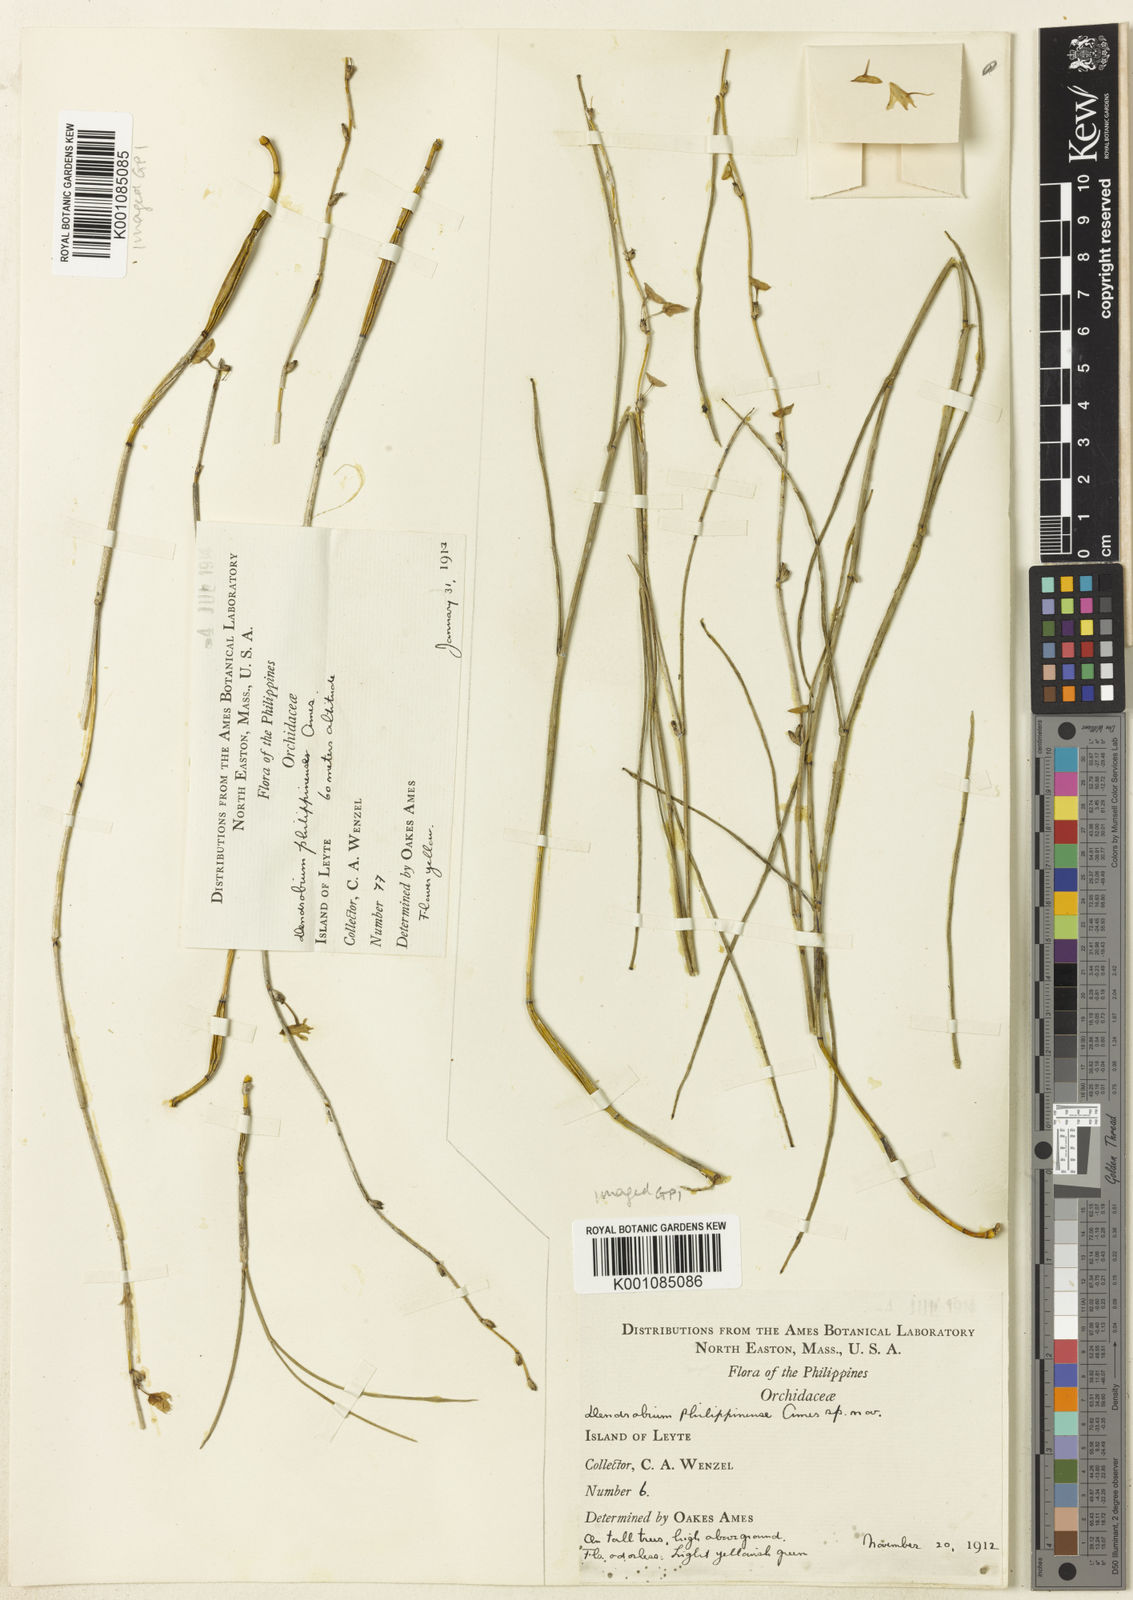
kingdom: Plantae
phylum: Tracheophyta
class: Liliopsida
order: Asparagales
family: Orchidaceae
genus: Dendrobium
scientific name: Dendrobium gerlandianum
